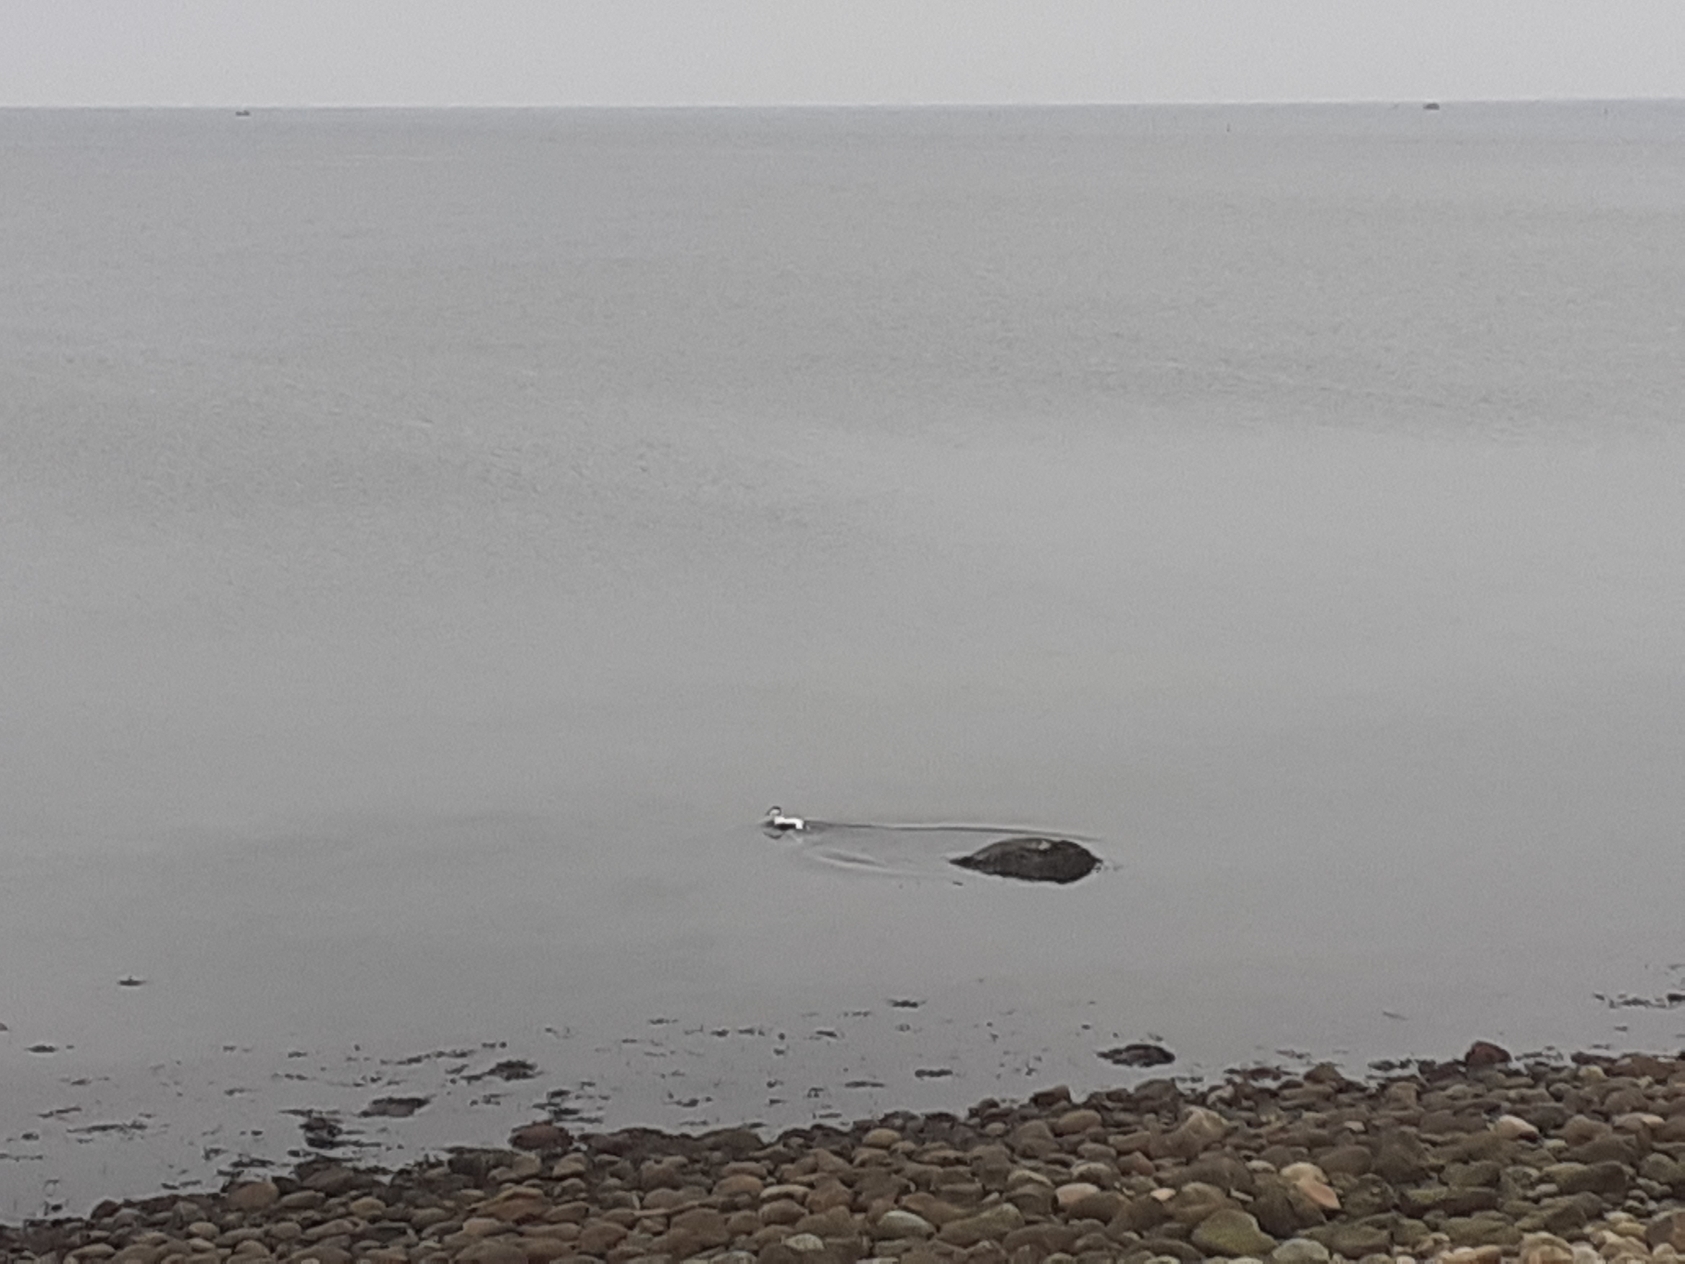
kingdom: Animalia
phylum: Chordata
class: Aves
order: Anseriformes
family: Anatidae
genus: Somateria
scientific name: Somateria mollissima
